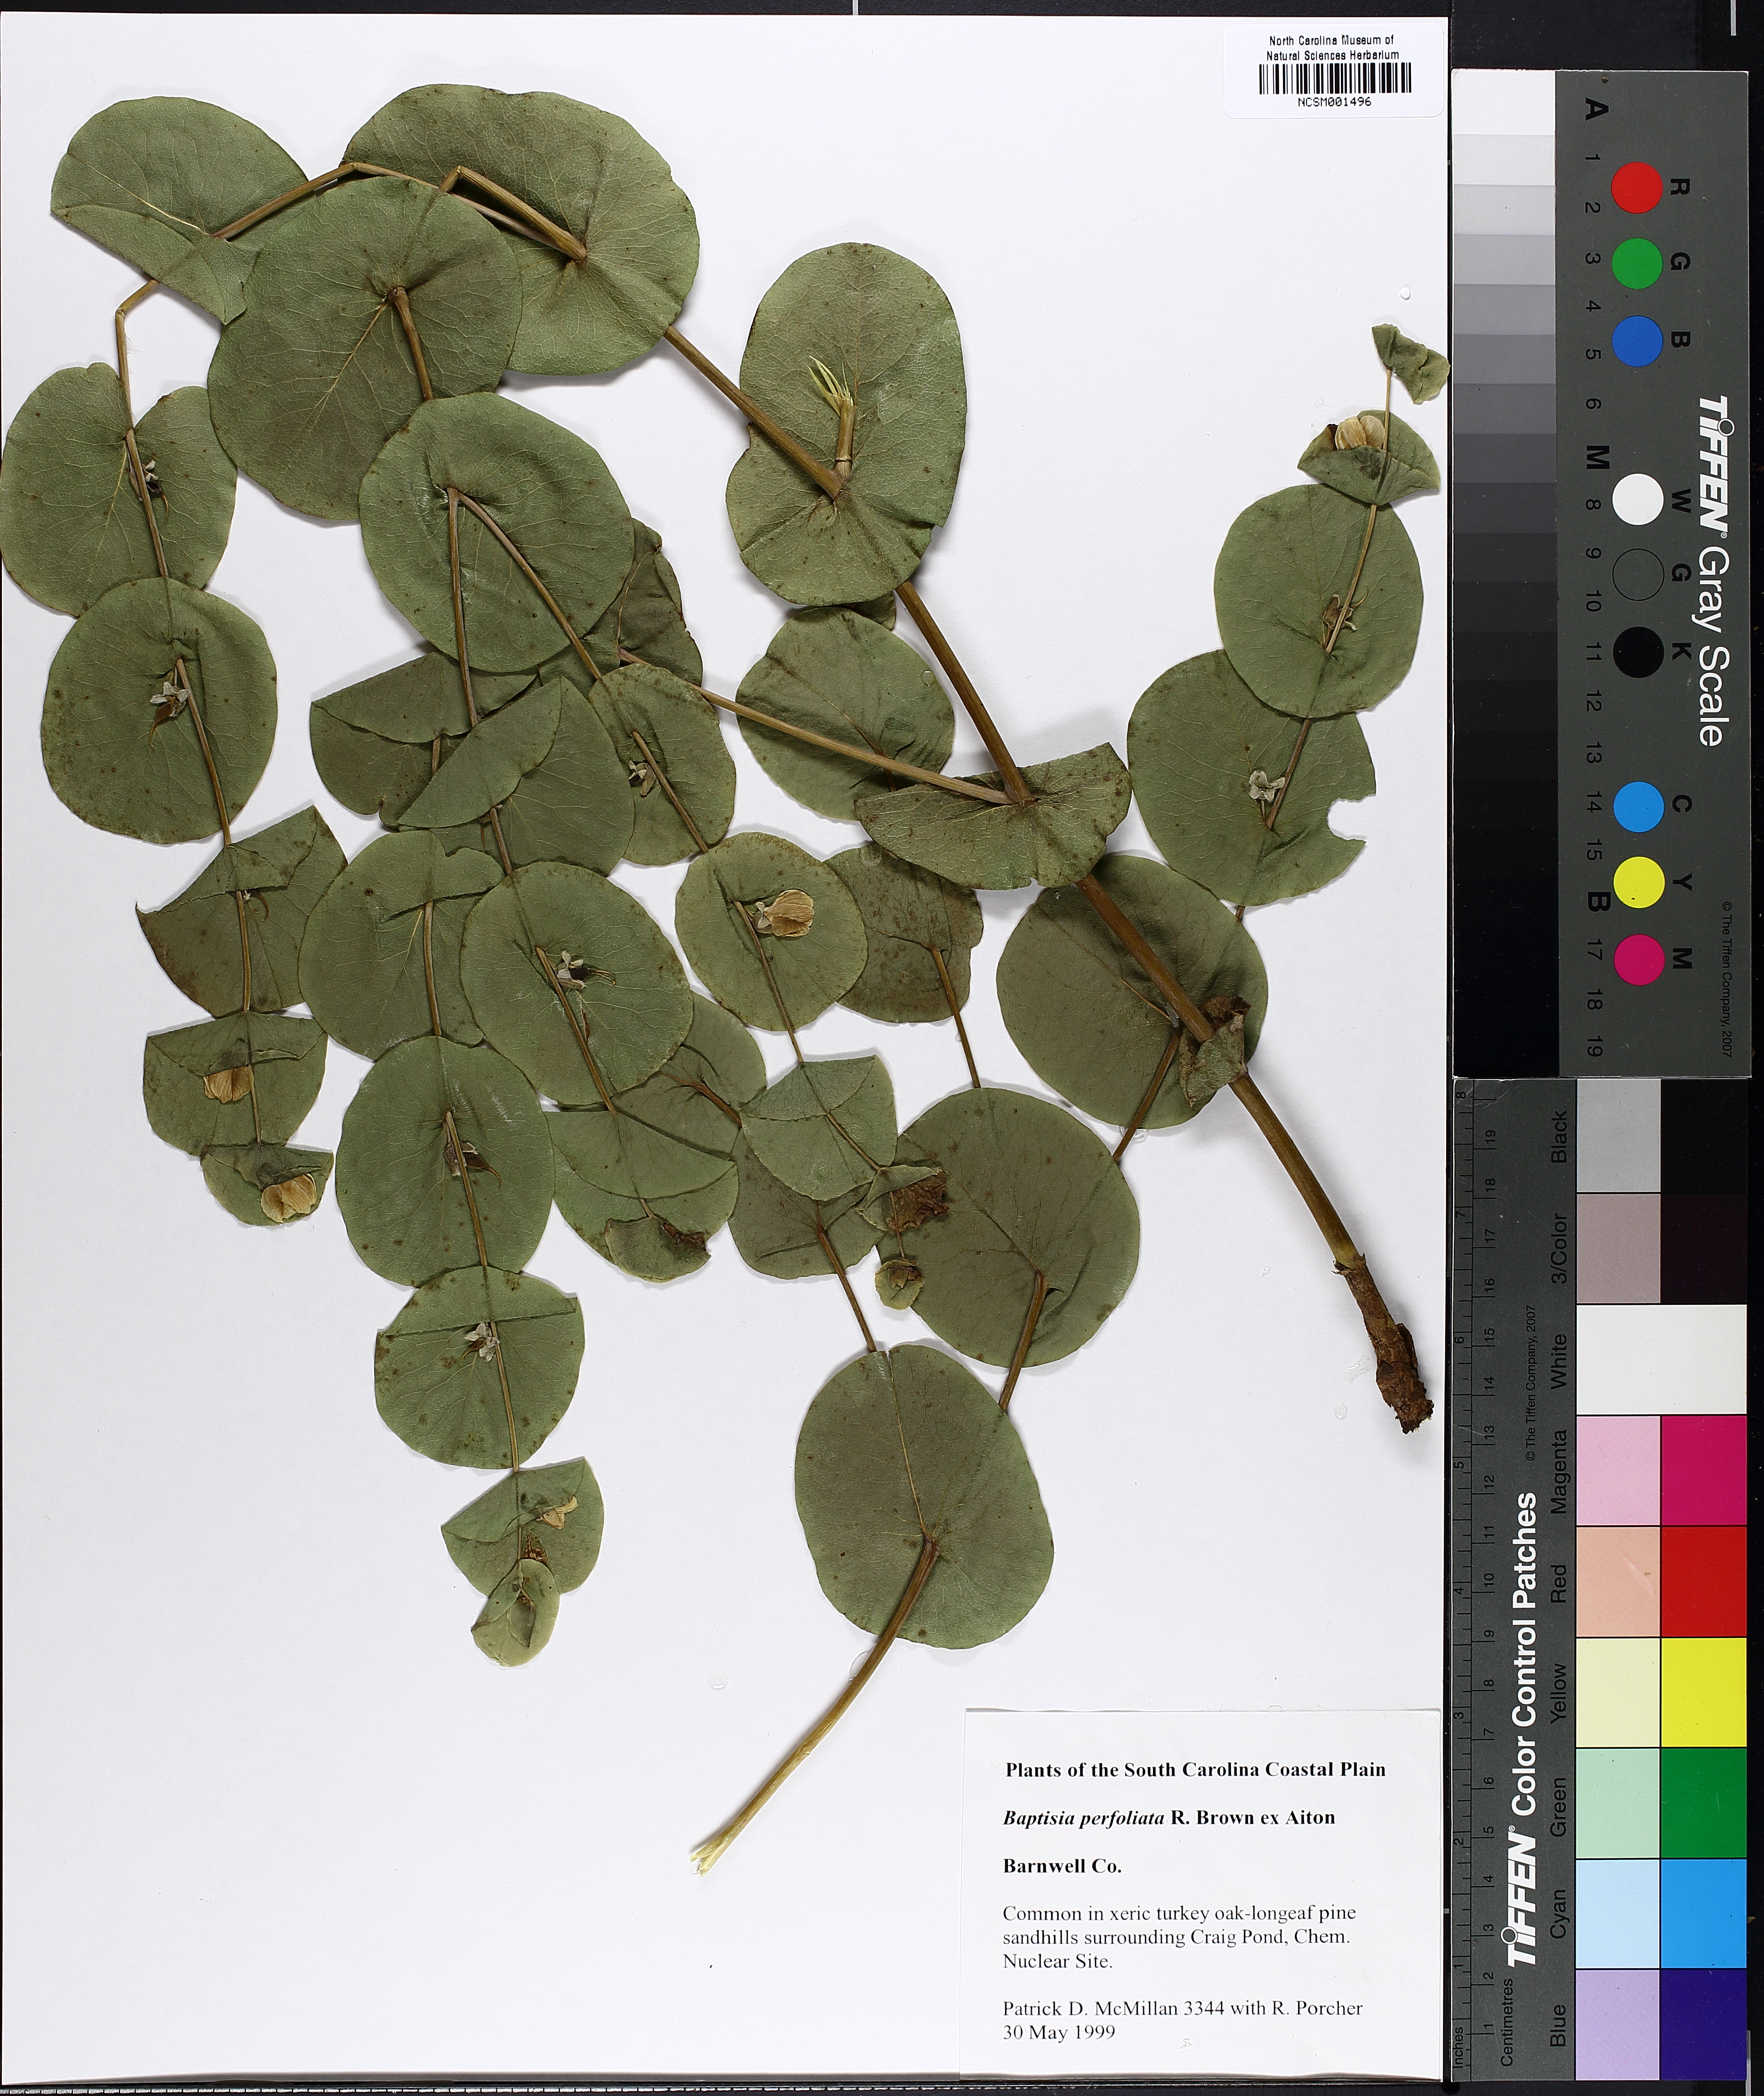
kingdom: Plantae
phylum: Tracheophyta
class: Magnoliopsida
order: Fabales
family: Fabaceae
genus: Baptisia
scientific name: Baptisia perfoliata
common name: Catbells
